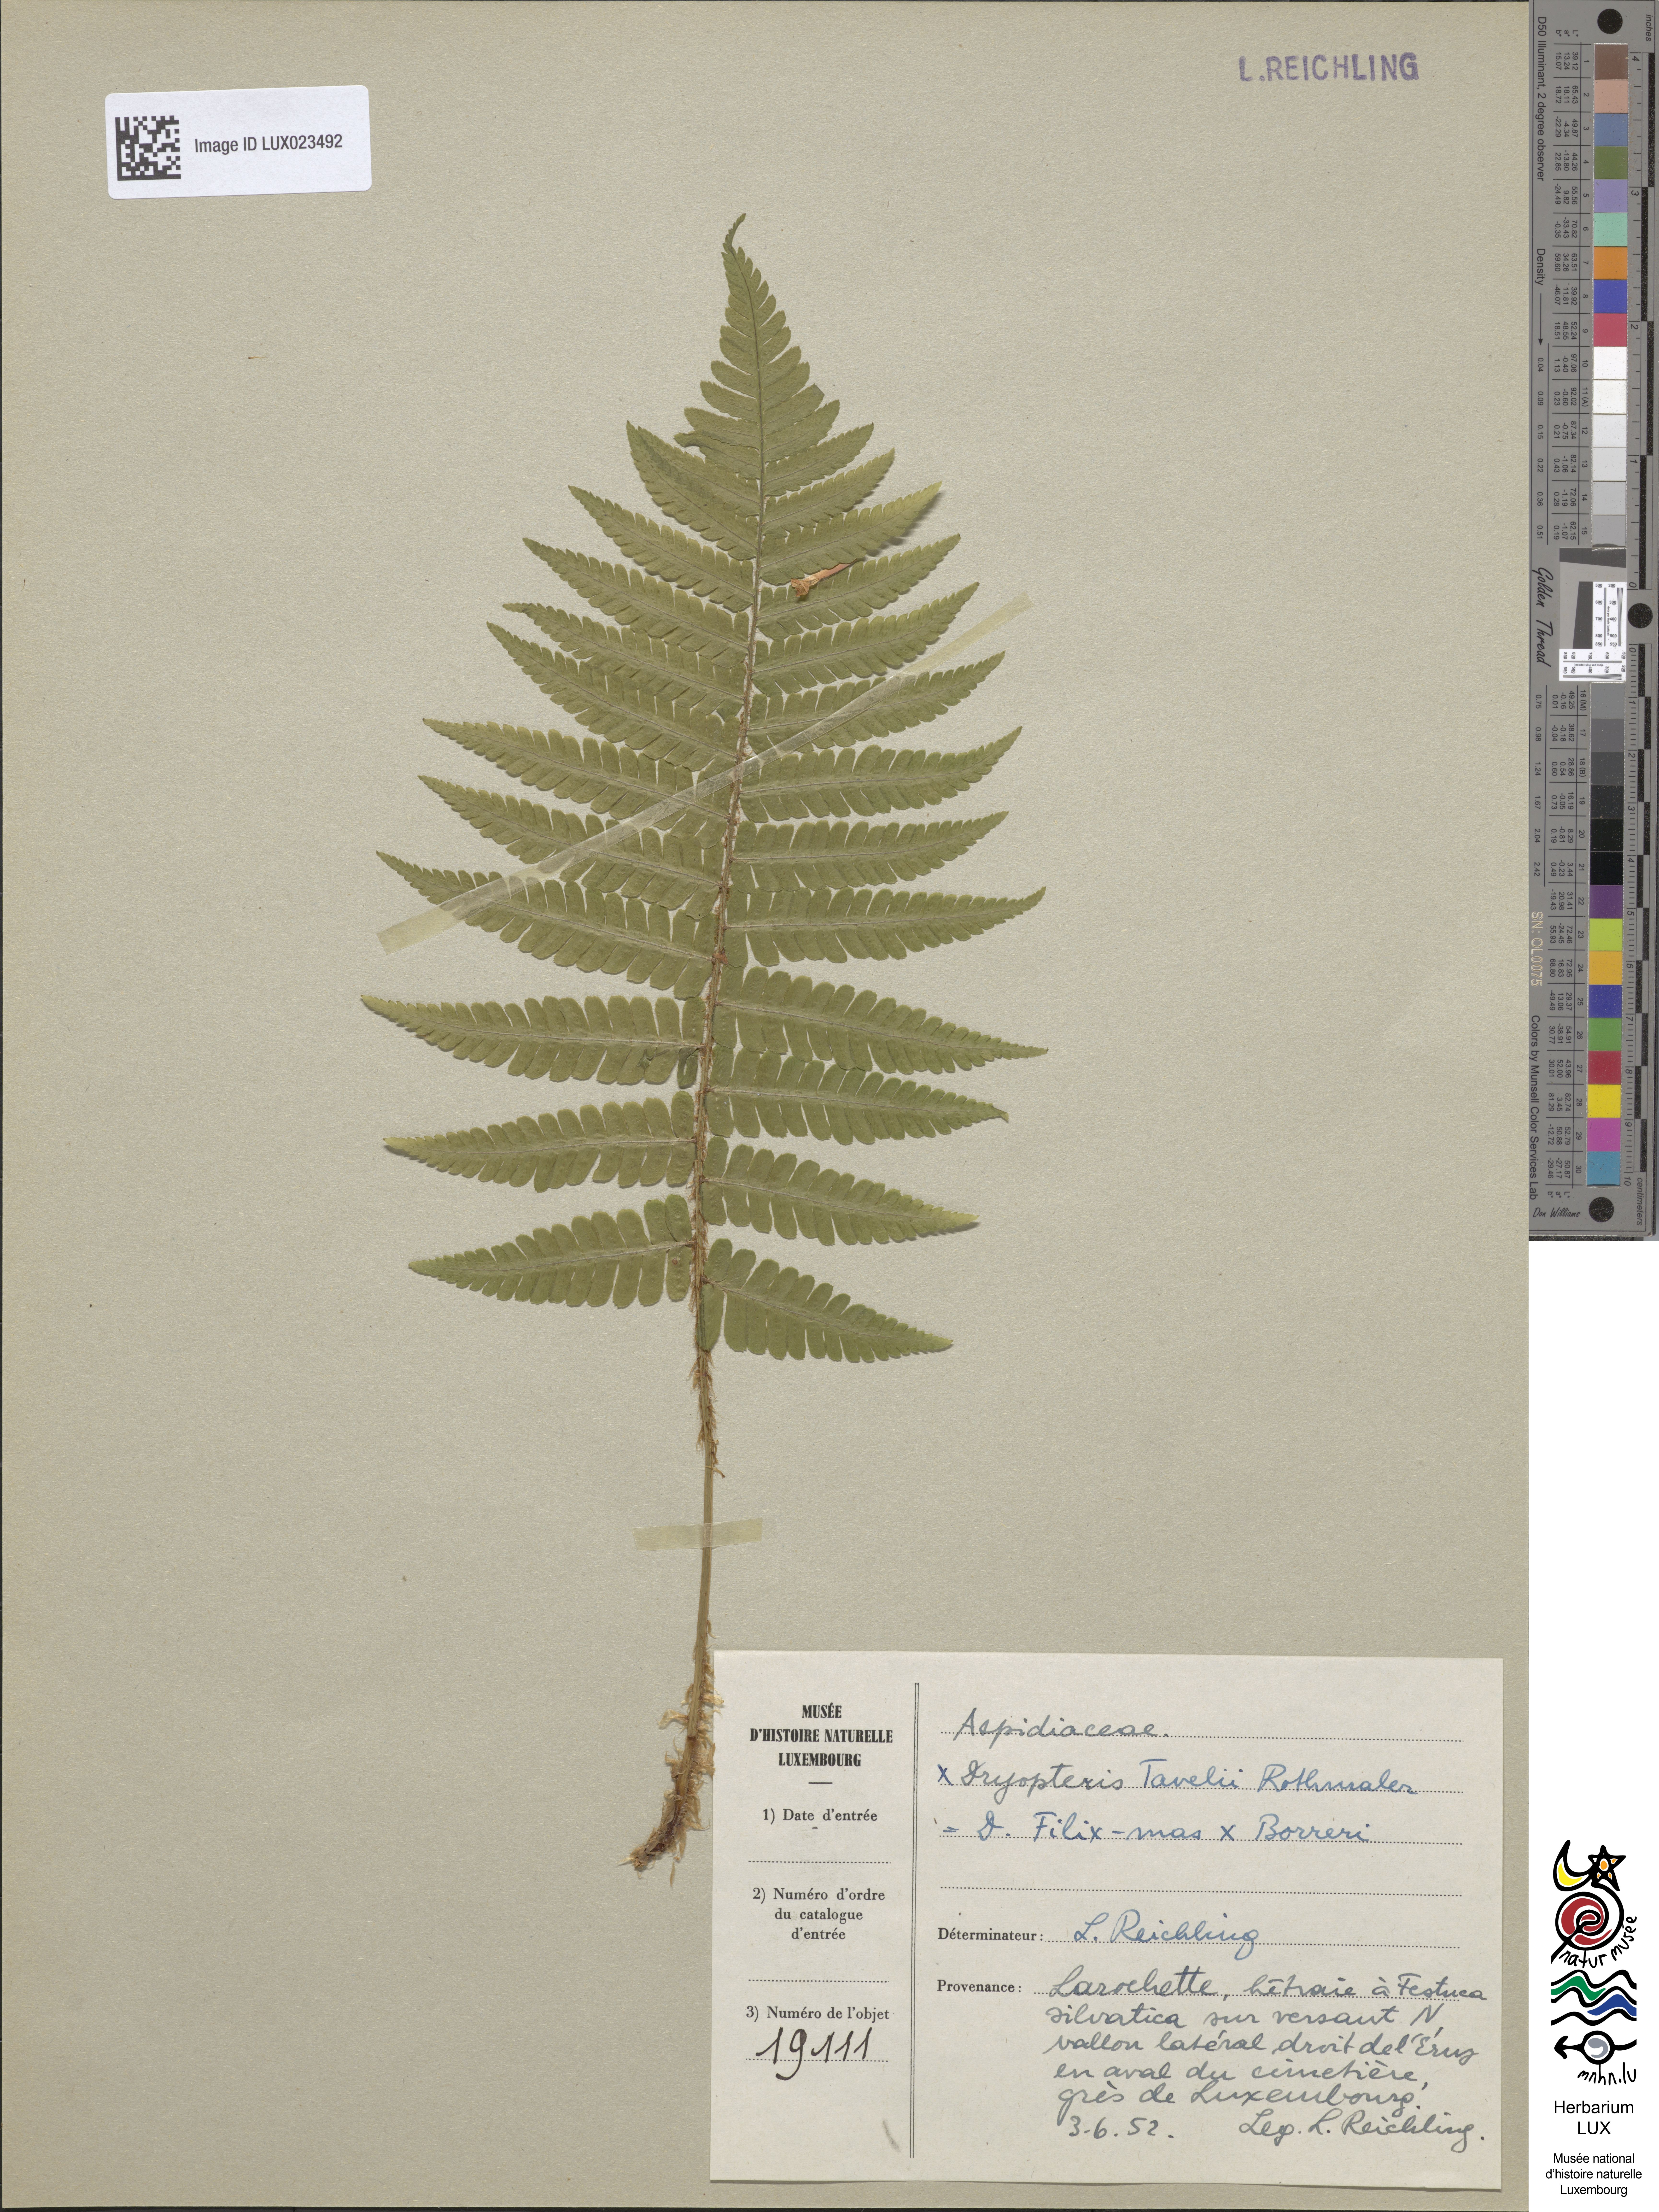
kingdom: Plantae
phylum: Tracheophyta
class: Polypodiopsida
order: Polypodiales
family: Dryopteridaceae
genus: Dryopteris
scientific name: Dryopteris borreri
